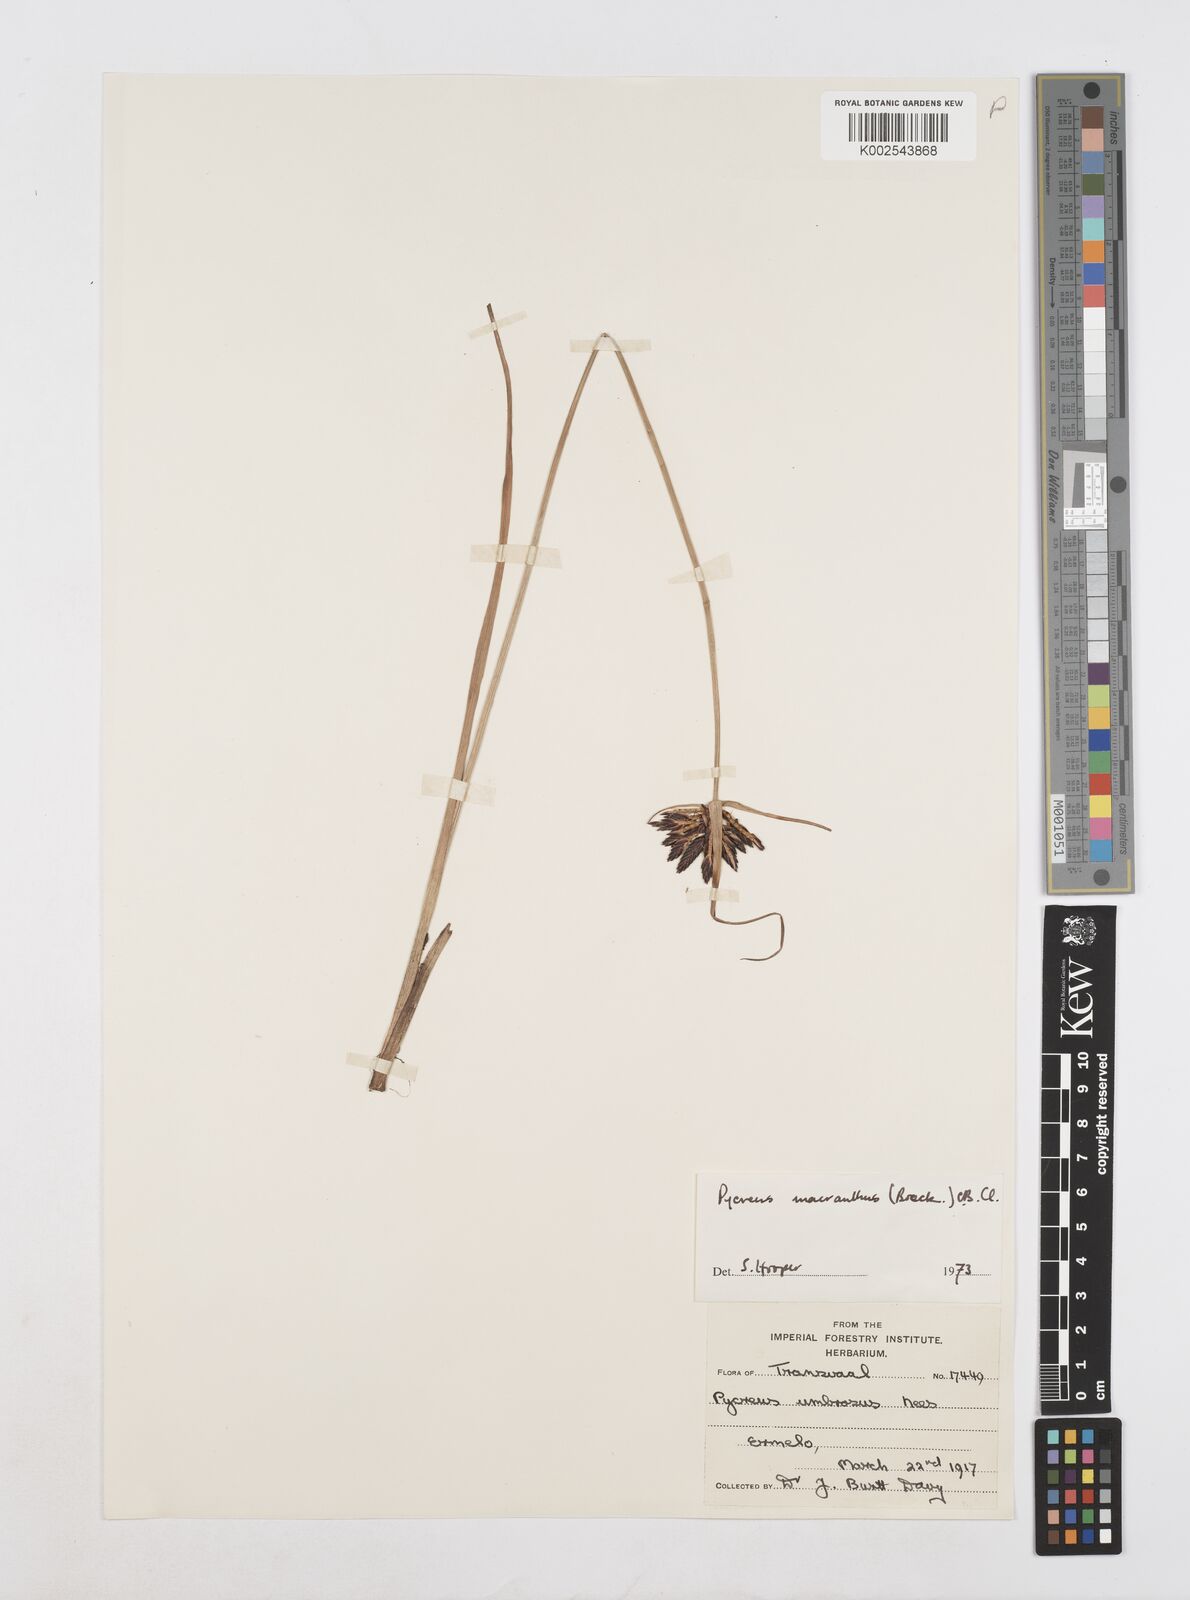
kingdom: Plantae
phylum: Tracheophyta
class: Liliopsida
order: Poales
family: Cyperaceae
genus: Cyperus
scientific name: Cyperus nigricans
